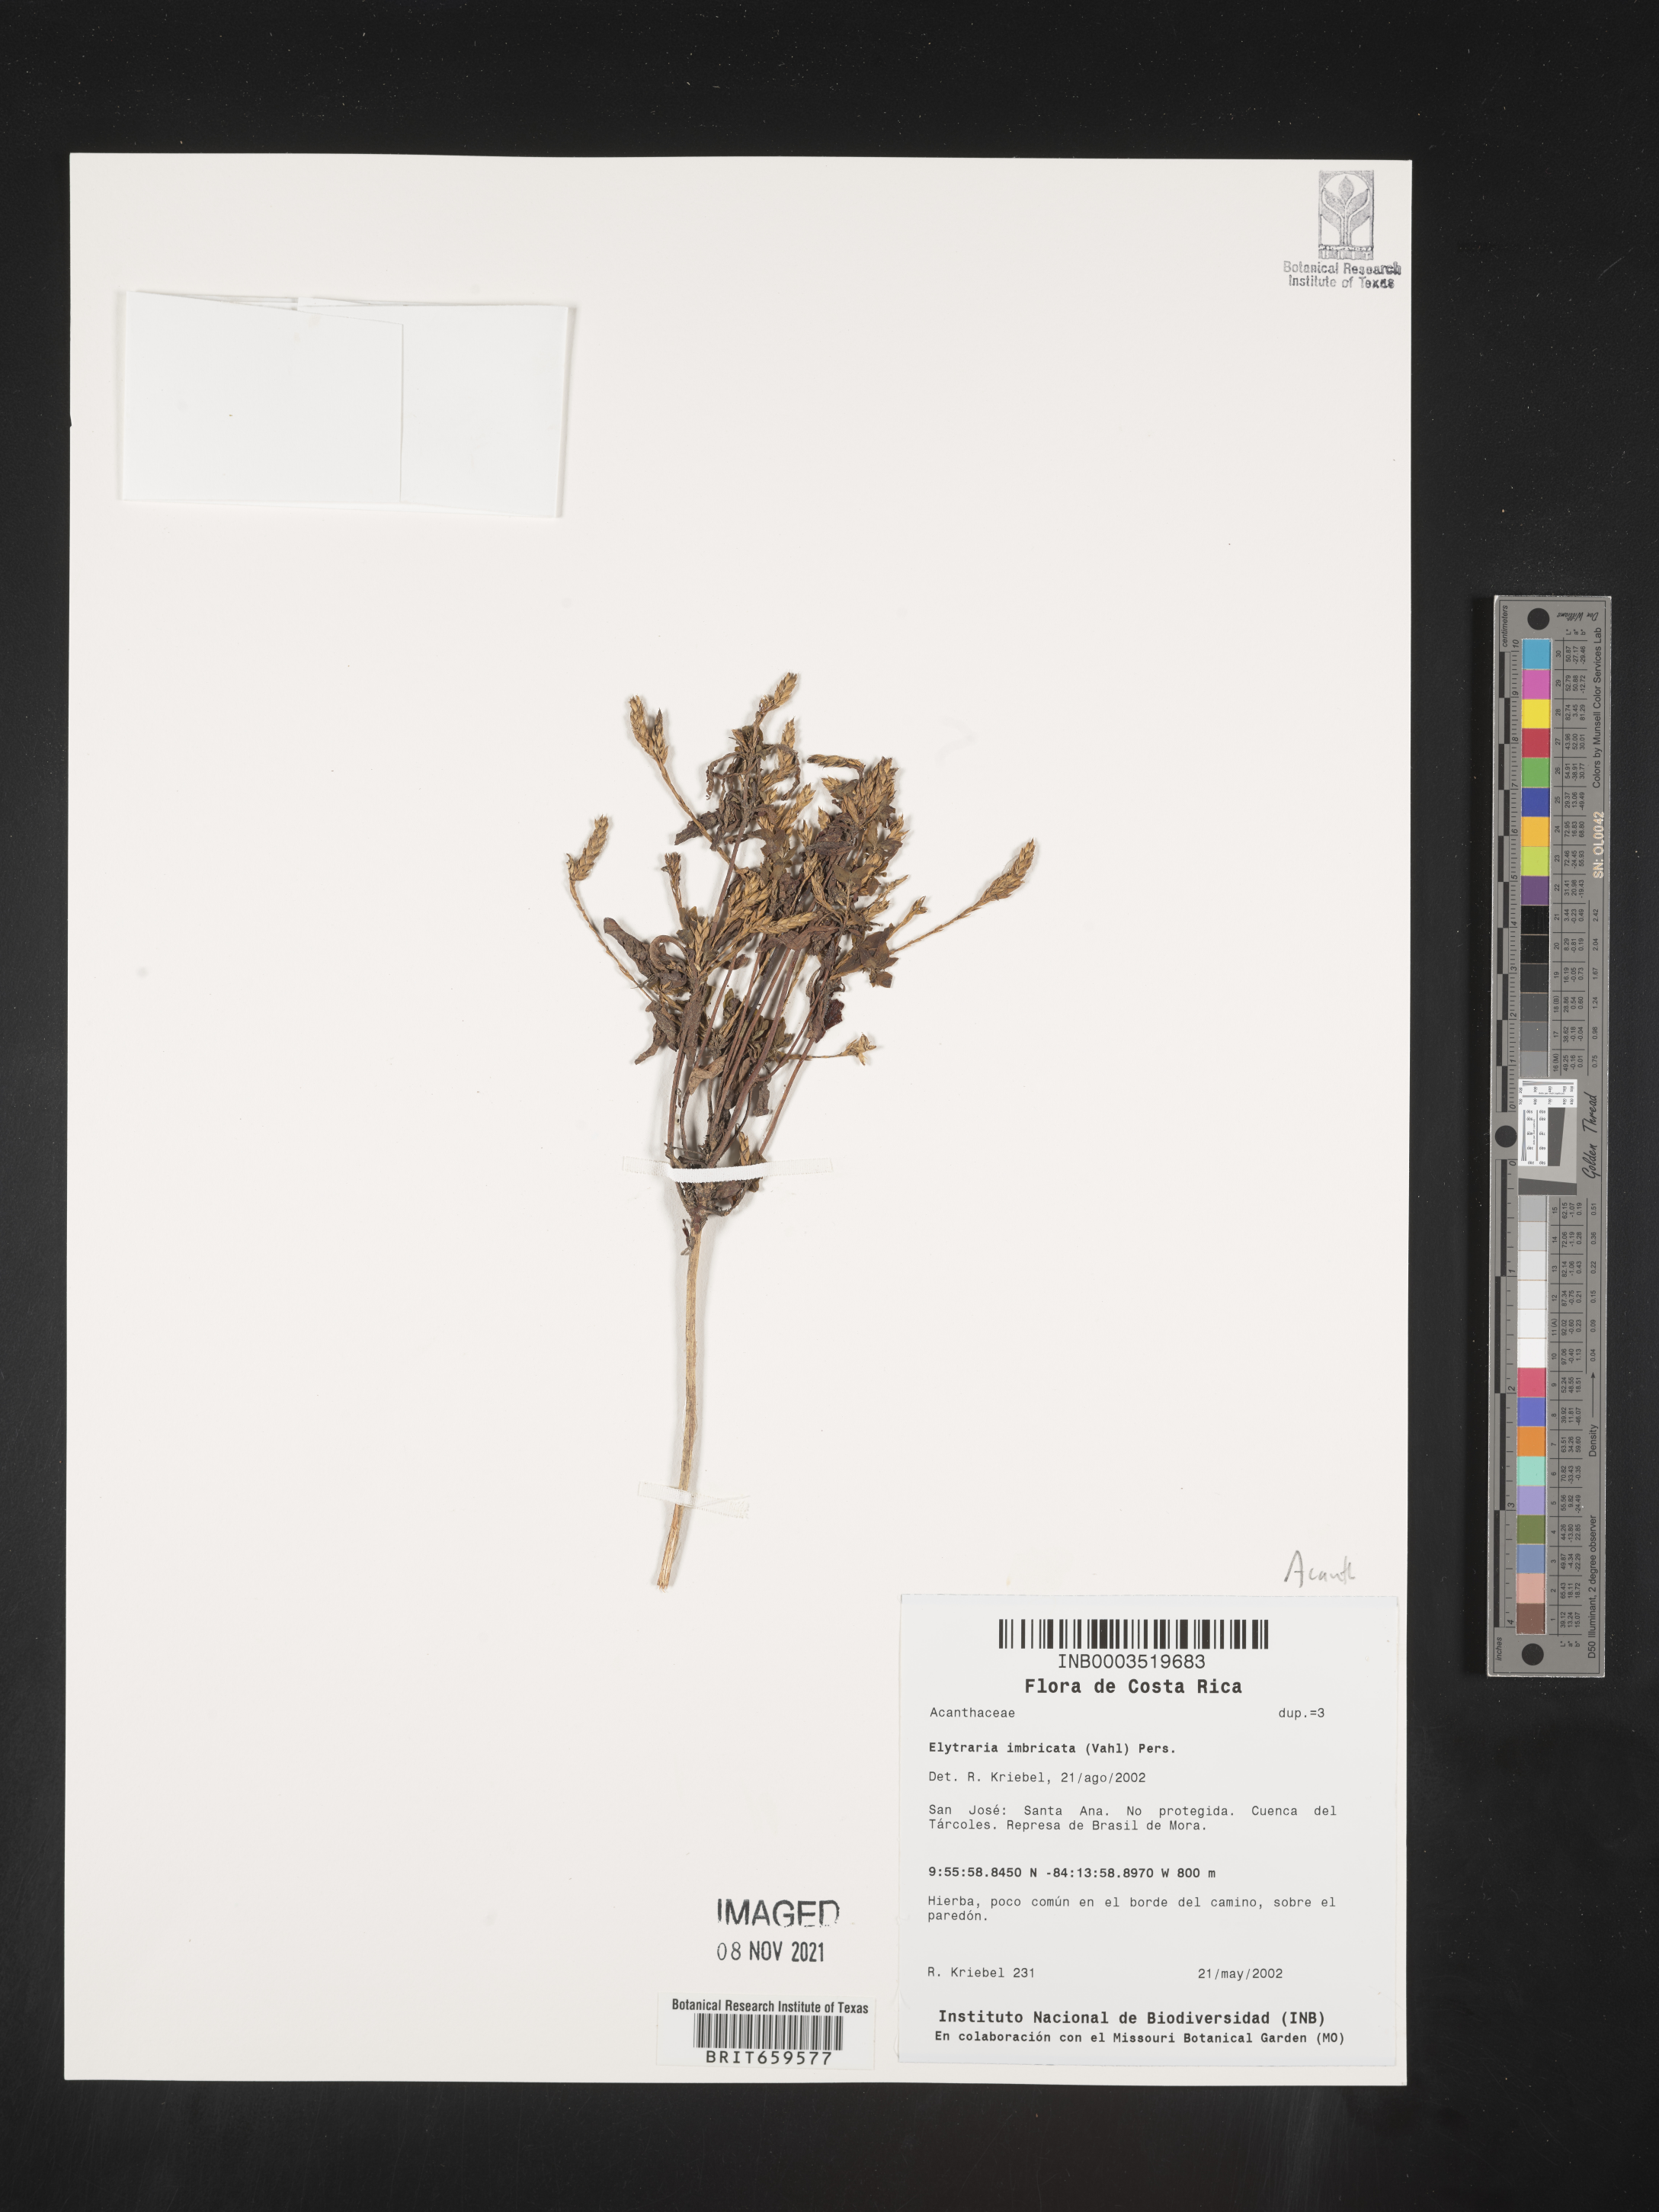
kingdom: Plantae
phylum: Tracheophyta
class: Magnoliopsida
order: Lamiales
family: Acanthaceae
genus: Elytraria
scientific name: Elytraria imbricata
